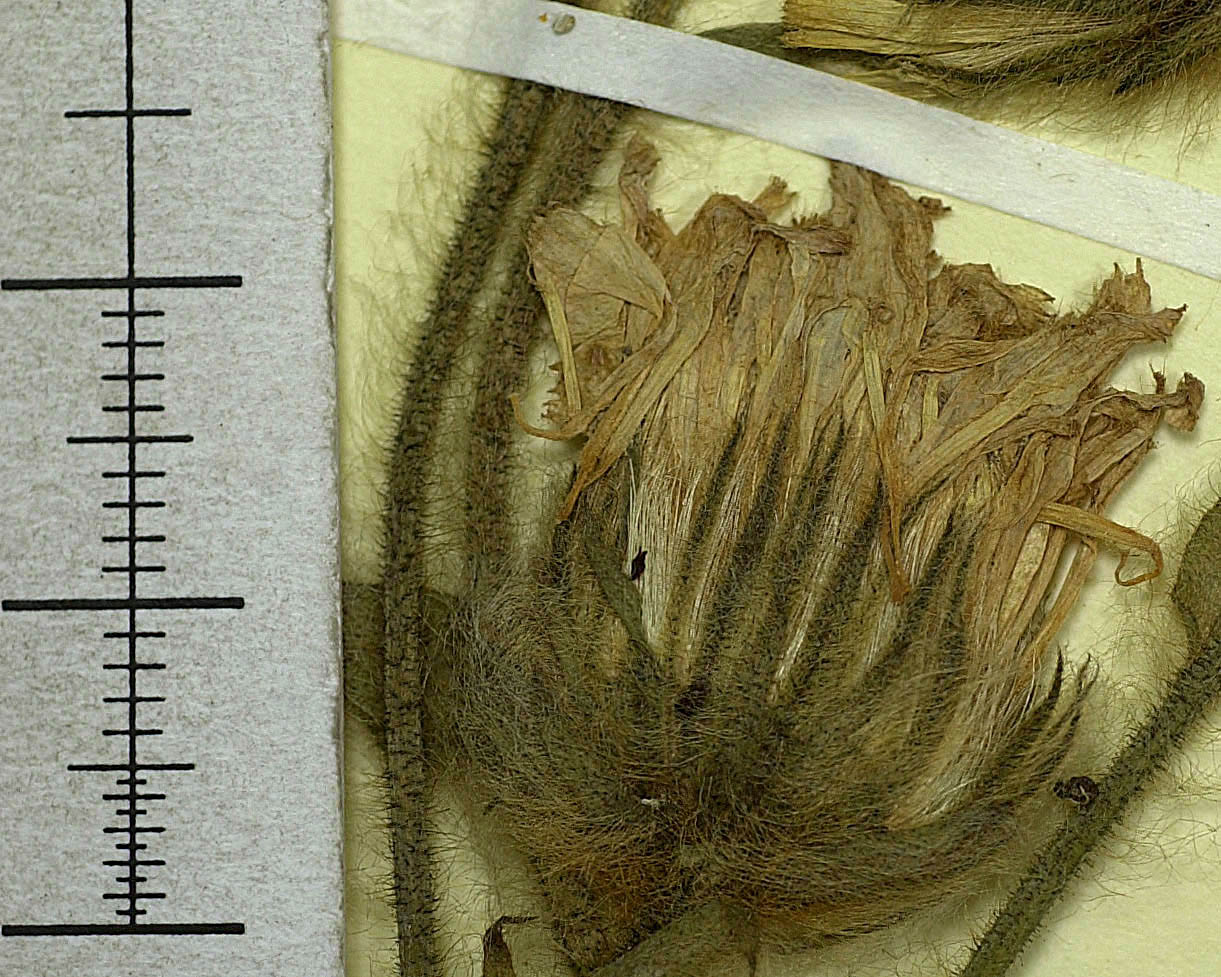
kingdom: Plantae
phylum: Tracheophyta
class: Magnoliopsida
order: Asterales
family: Asteraceae
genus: Hieracium
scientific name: Hieracium cubillanum
